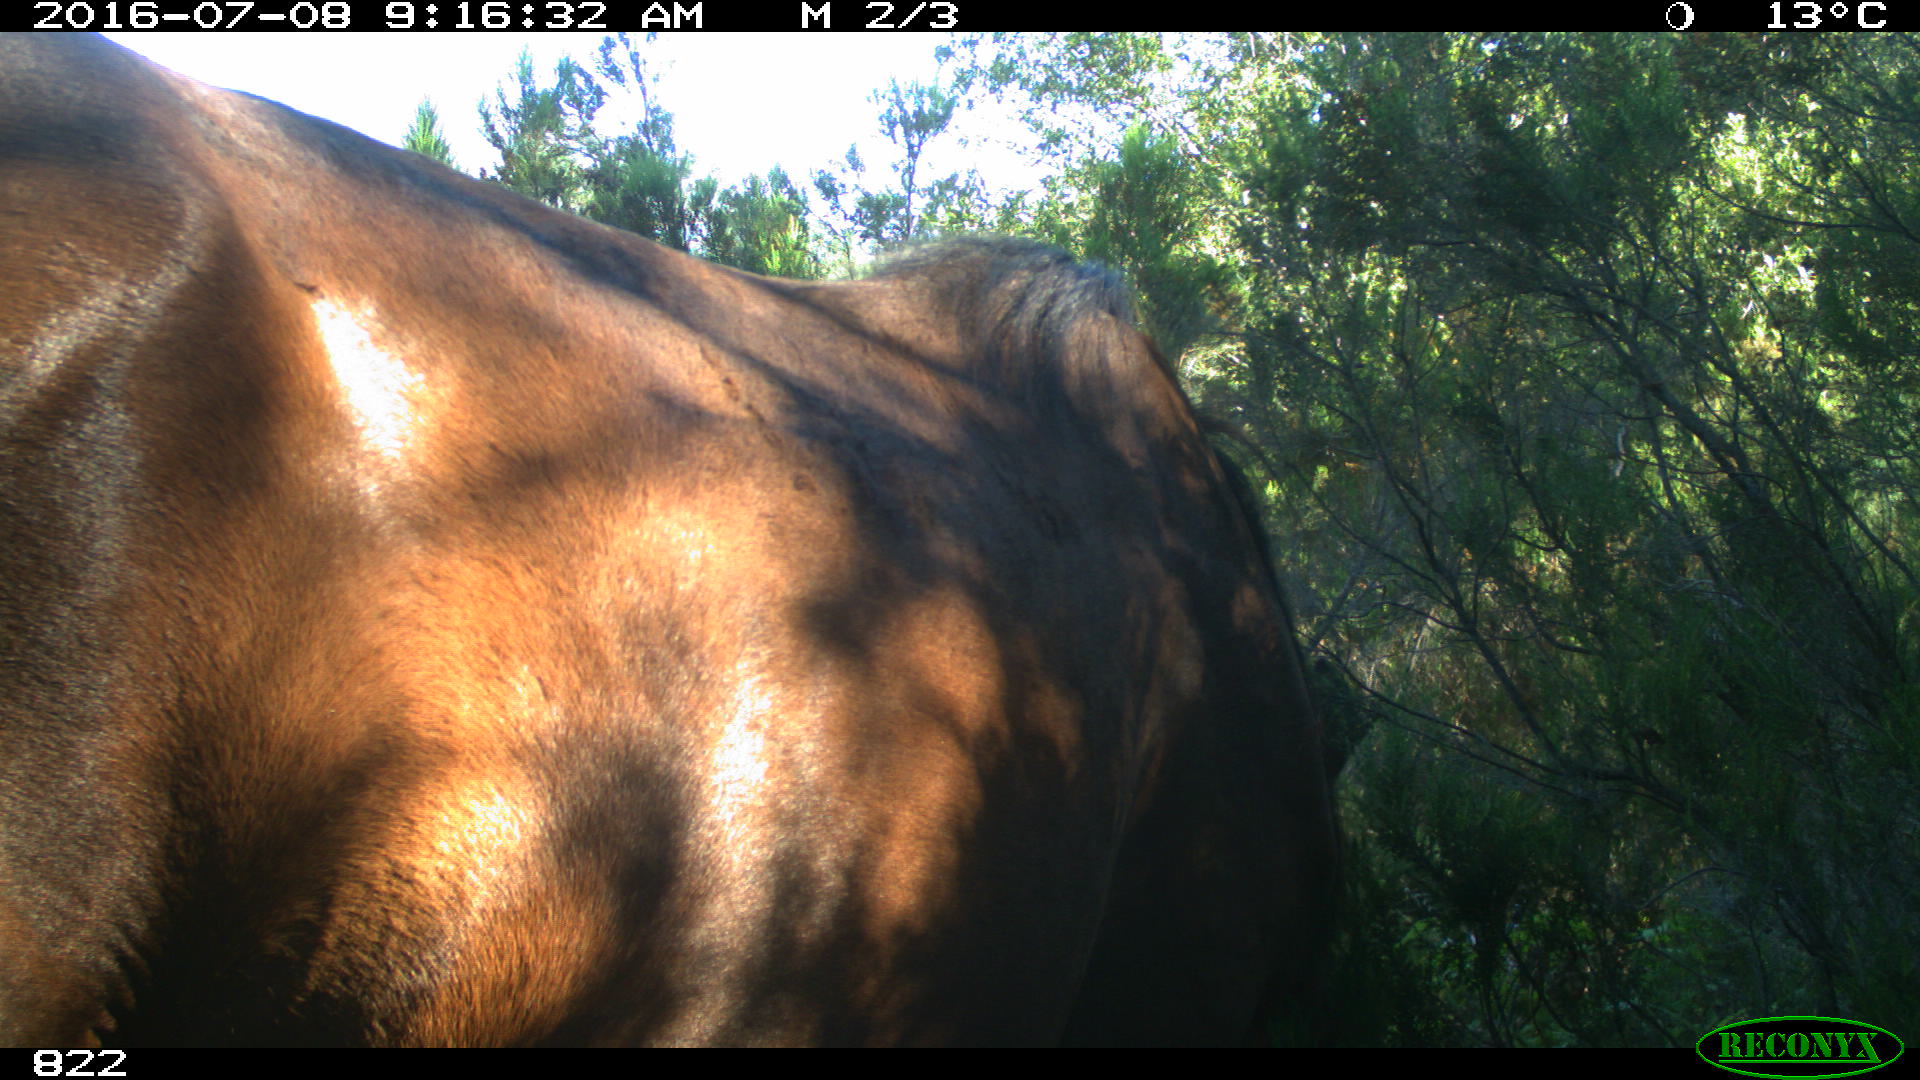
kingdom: Animalia
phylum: Chordata
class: Mammalia
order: Perissodactyla
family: Equidae
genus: Equus
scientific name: Equus caballus
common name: Horse
